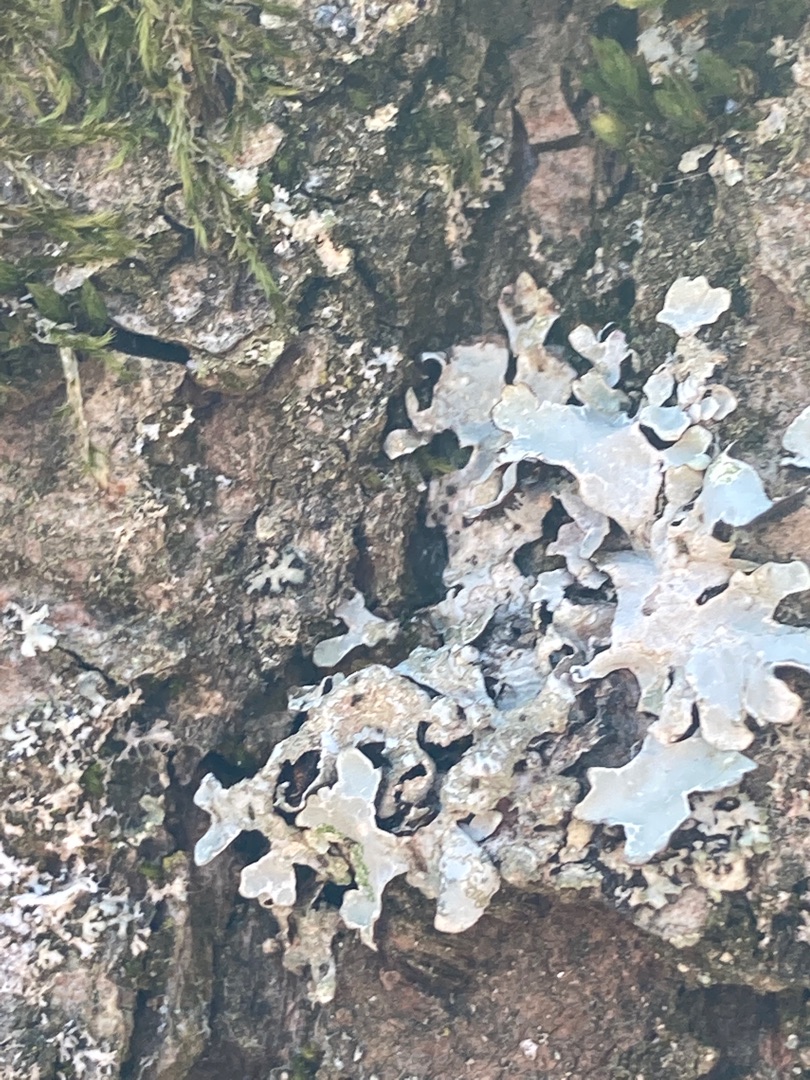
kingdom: Fungi
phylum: Ascomycota
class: Lecanoromycetes
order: Lecanorales
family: Parmeliaceae
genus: Parmelia
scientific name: Parmelia sulcata
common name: Rynket skållav
